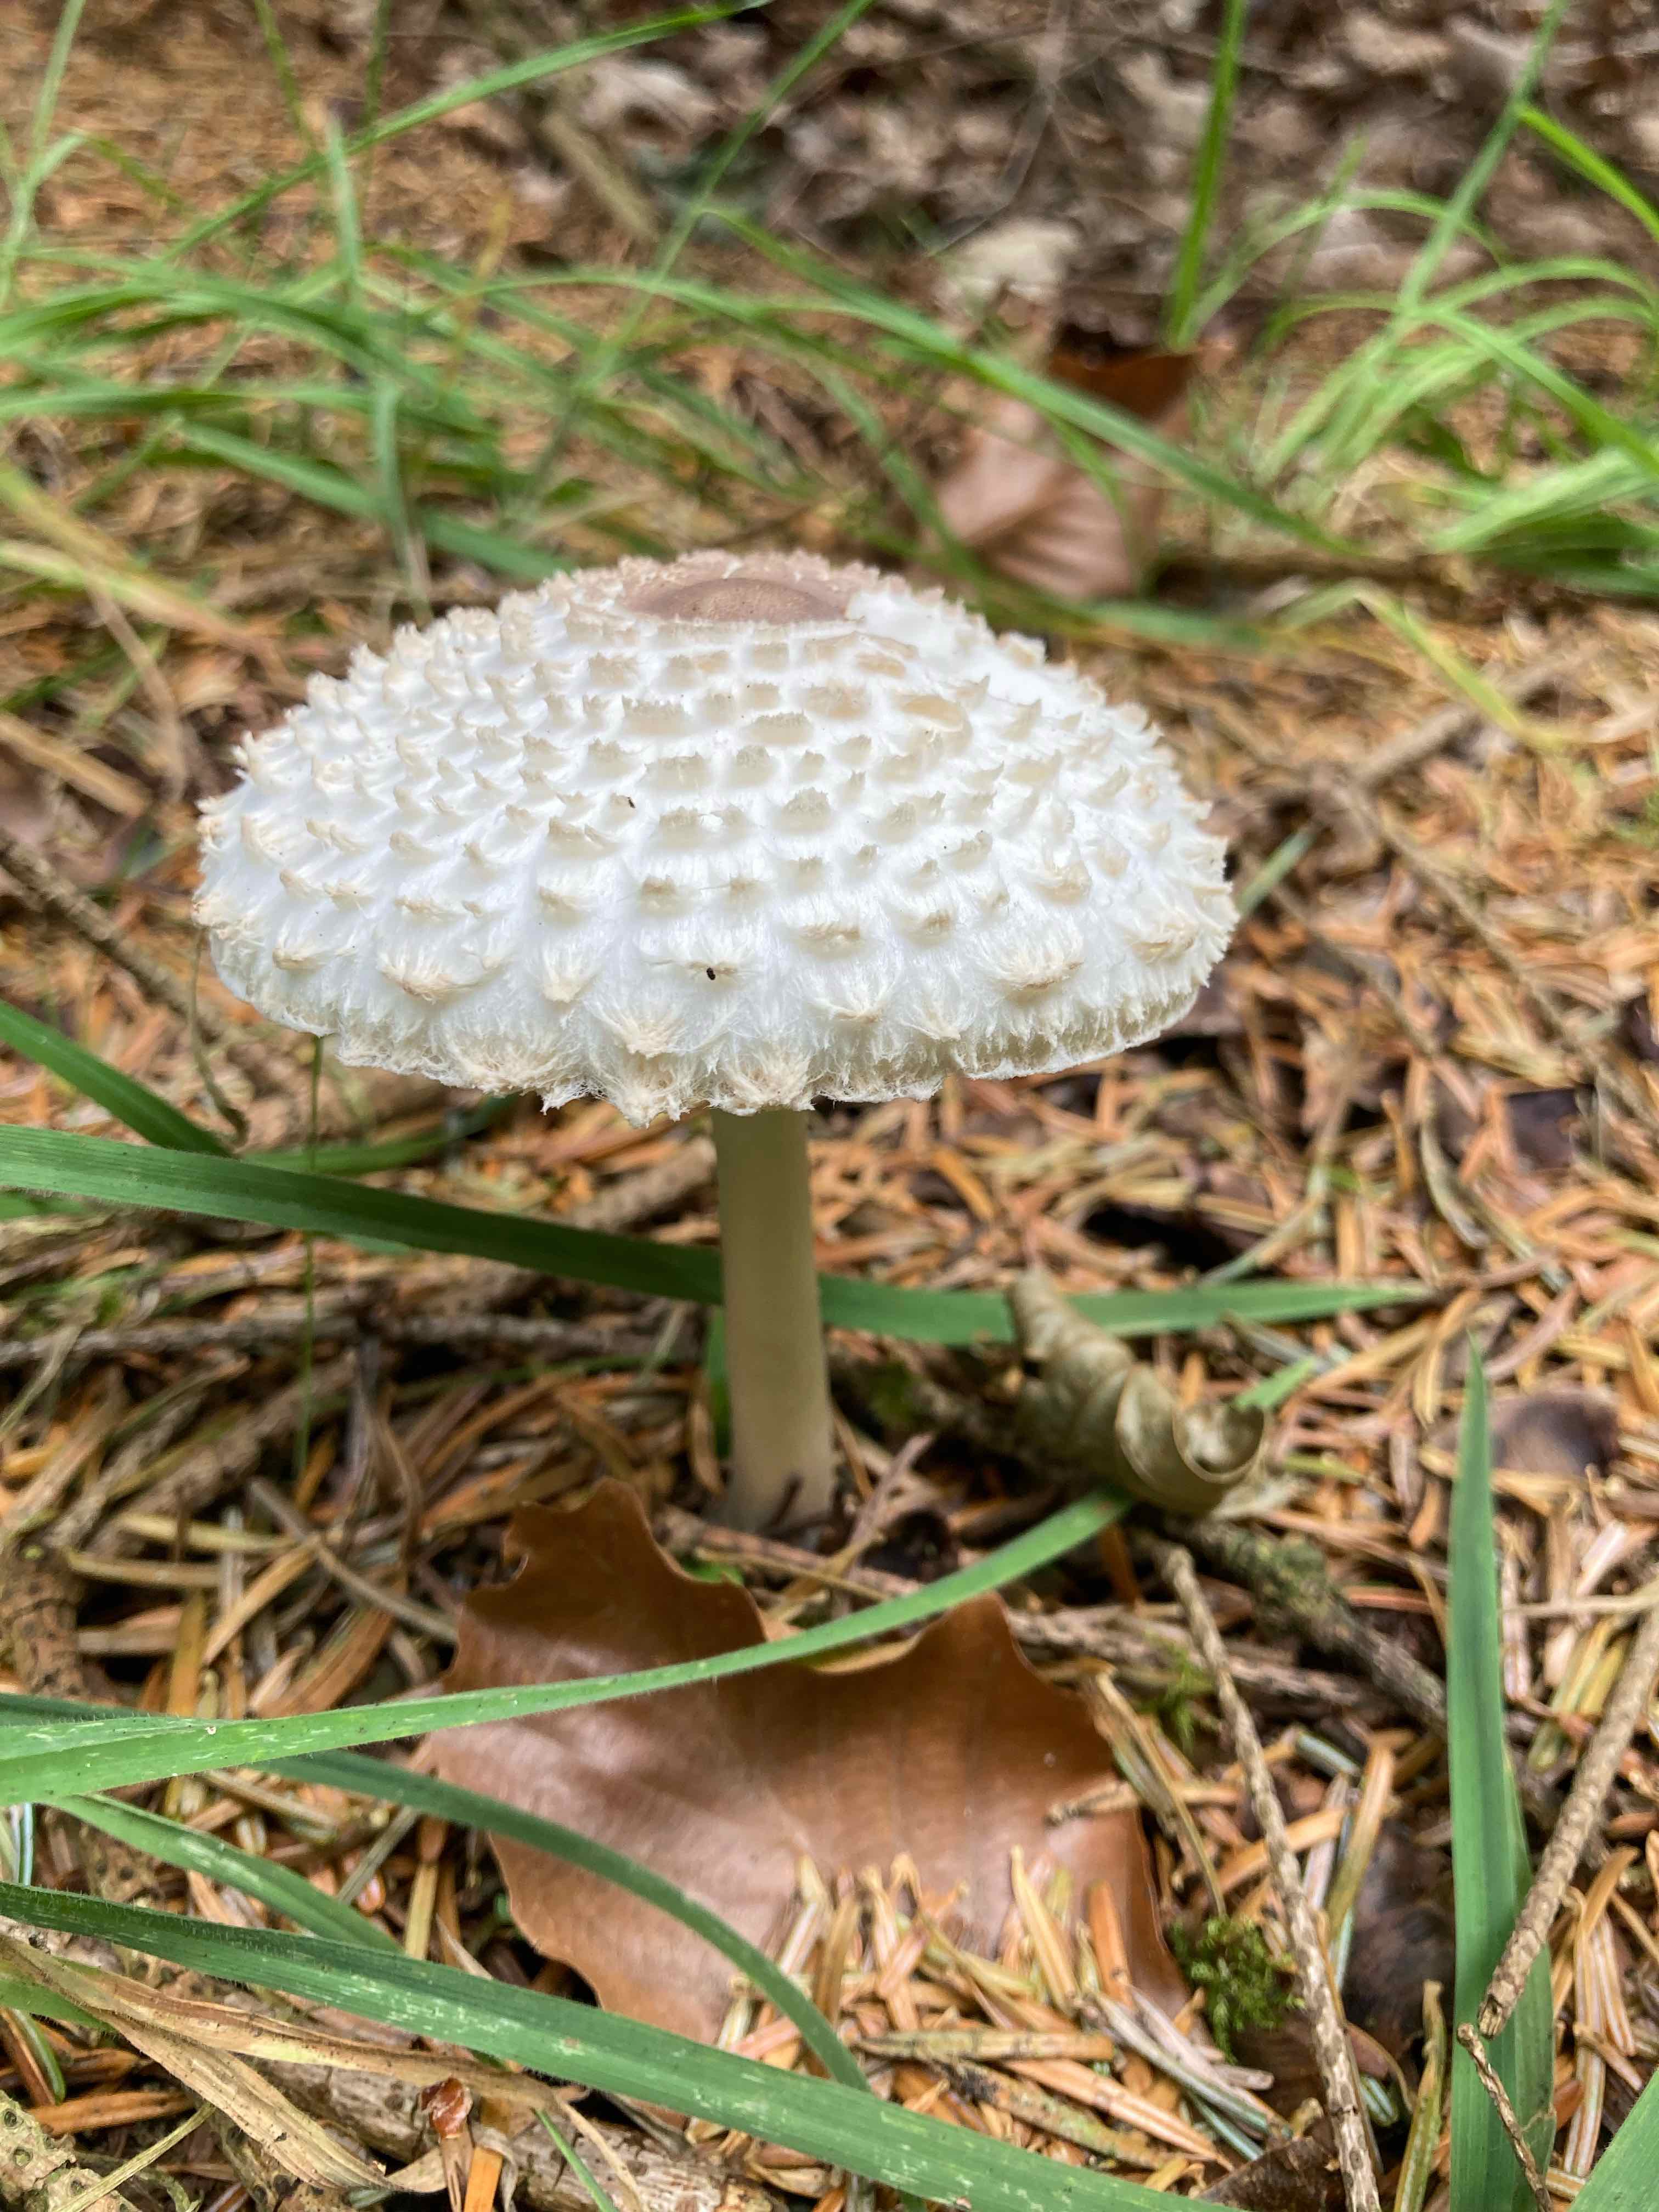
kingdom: Fungi
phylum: Basidiomycota
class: Agaricomycetes
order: Agaricales
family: Agaricaceae
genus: Leucoagaricus
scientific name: Leucoagaricus nympharum
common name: gran-silkehat
